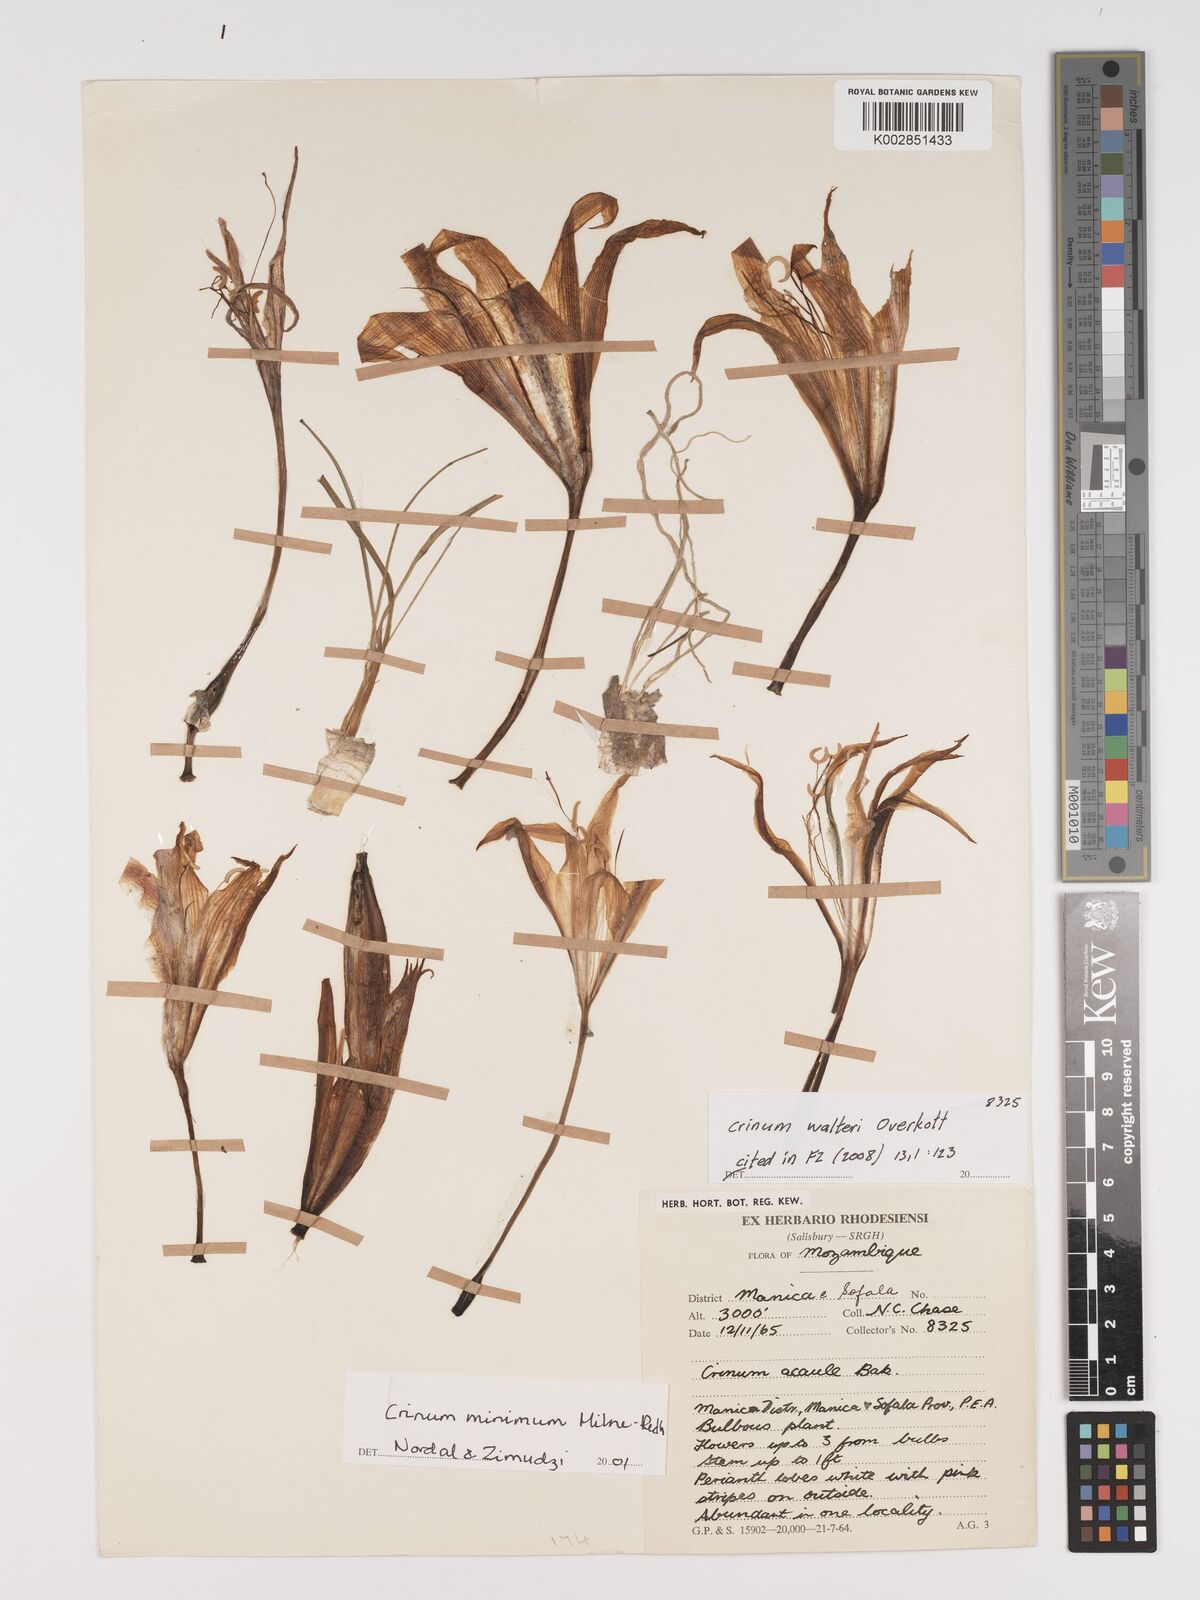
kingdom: Plantae
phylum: Tracheophyta
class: Liliopsida
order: Asparagales
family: Amaryllidaceae
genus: Crinum
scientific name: Crinum walteri
